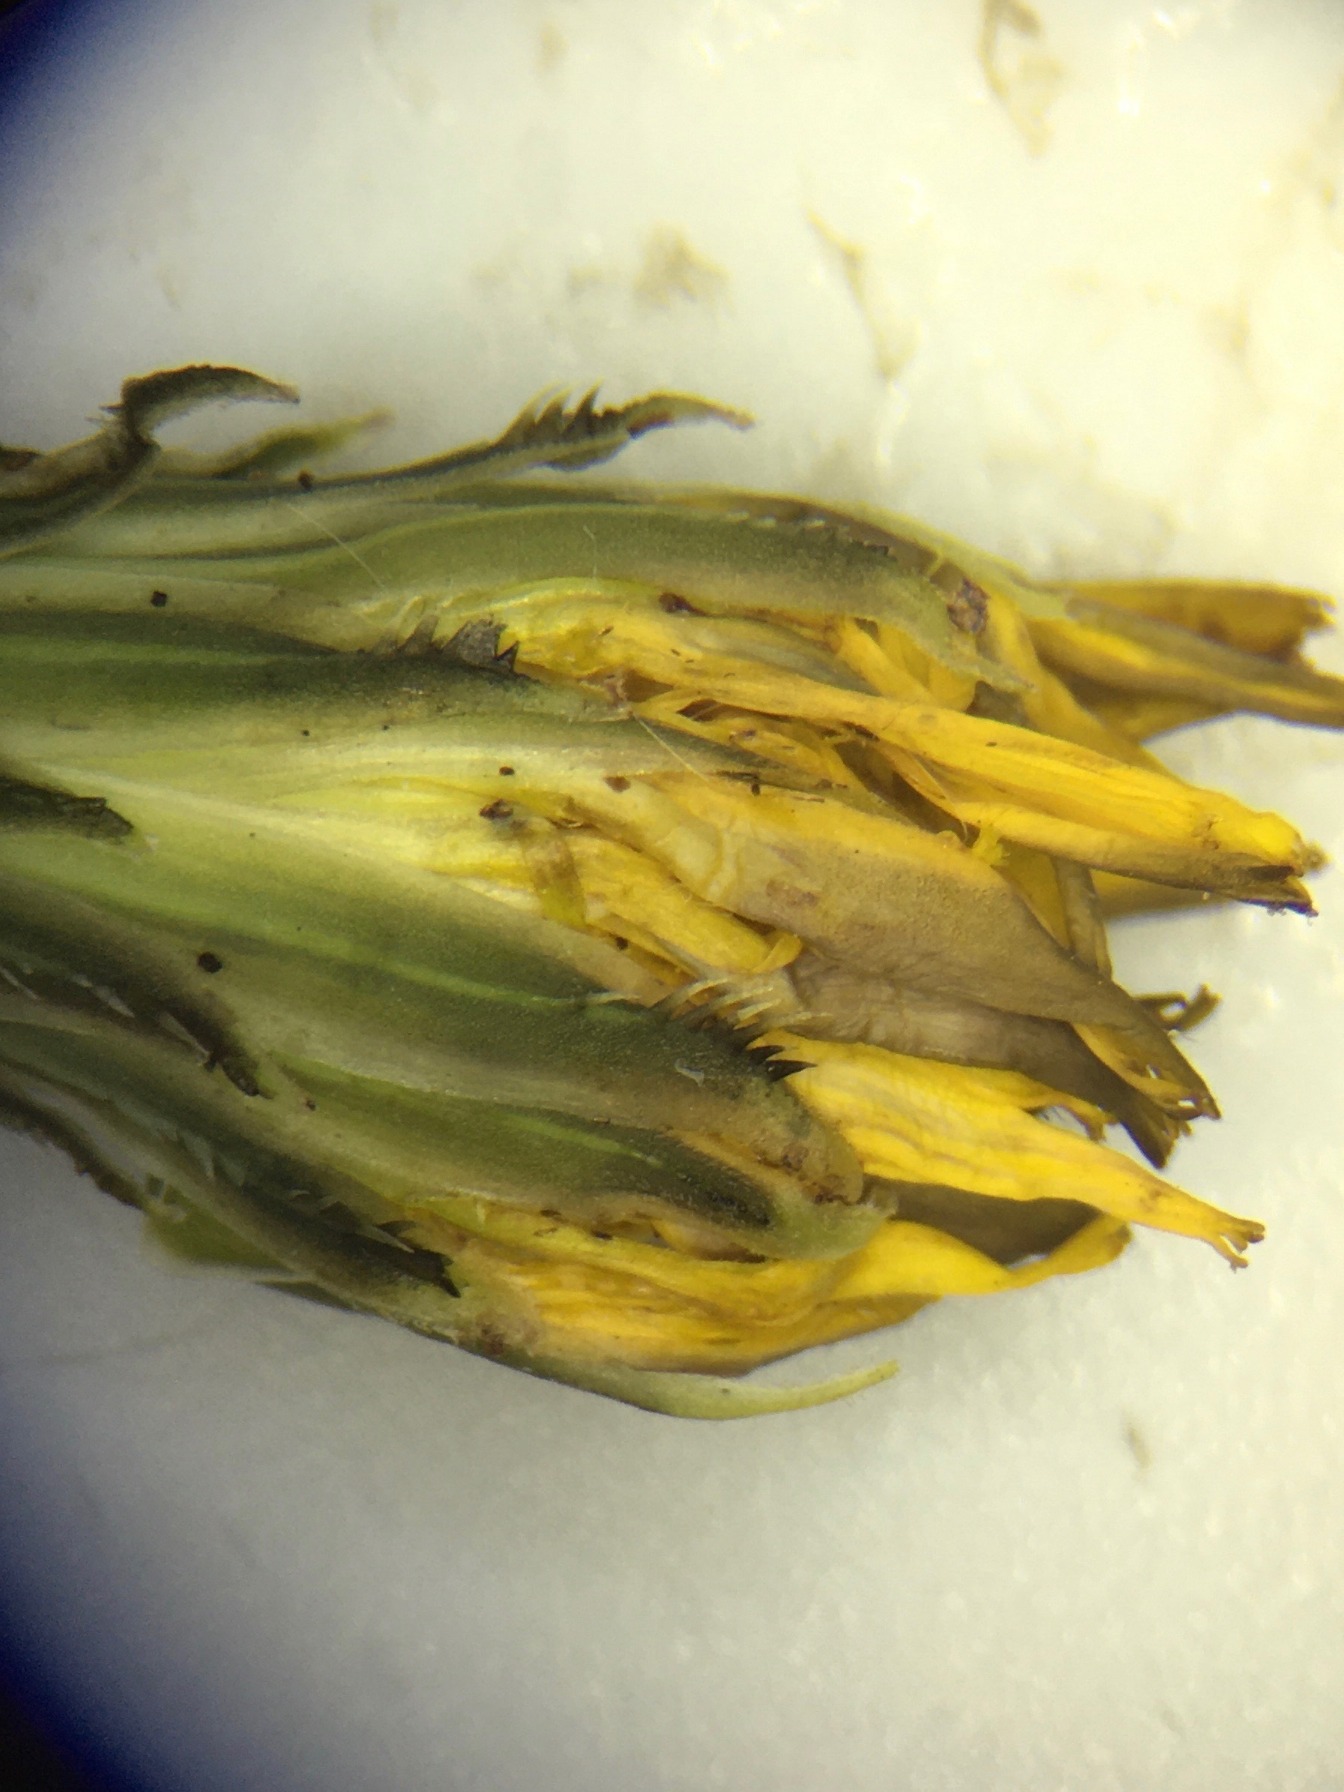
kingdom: Plantae
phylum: Tracheophyta
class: Magnoliopsida
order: Asterales
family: Asteraceae
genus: Hypochaeris
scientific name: Hypochaeris radicata
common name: Almindelig kongepen
